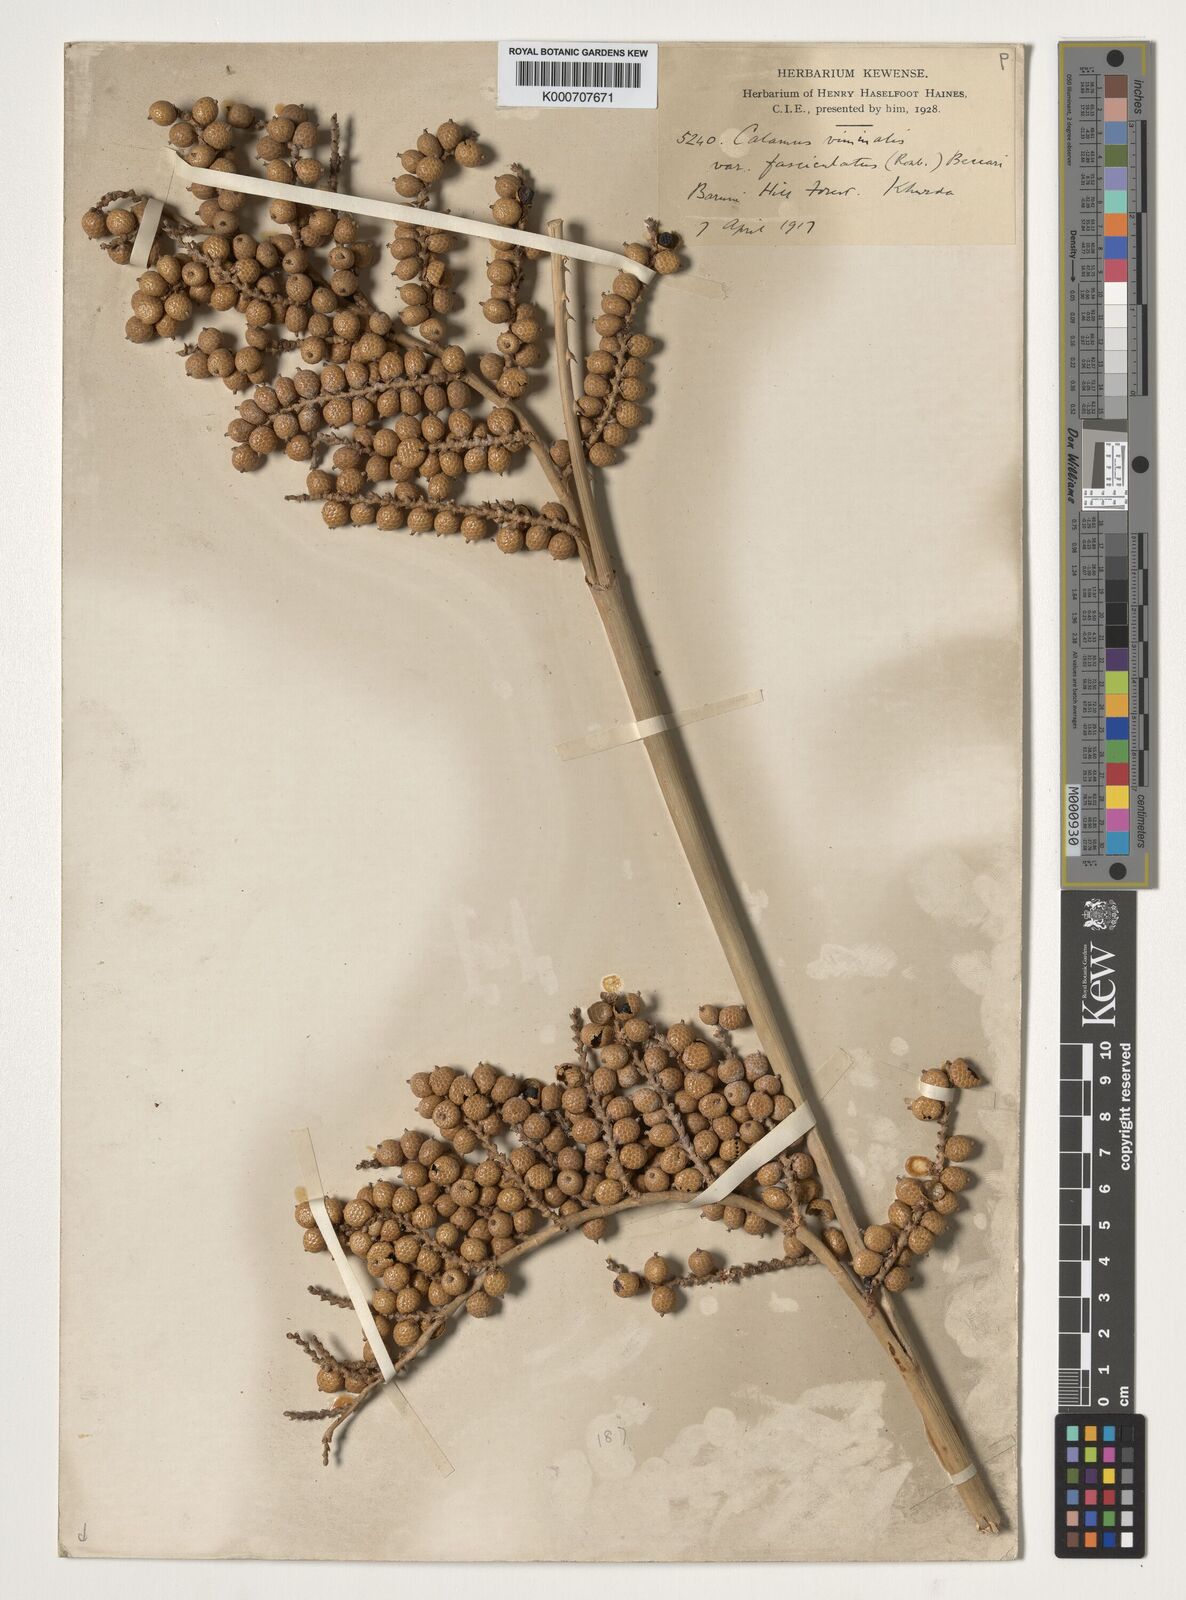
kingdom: Plantae
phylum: Tracheophyta
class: Liliopsida
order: Arecales
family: Arecaceae
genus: Calamus
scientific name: Calamus viminalis
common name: Osier-like rattan palm
